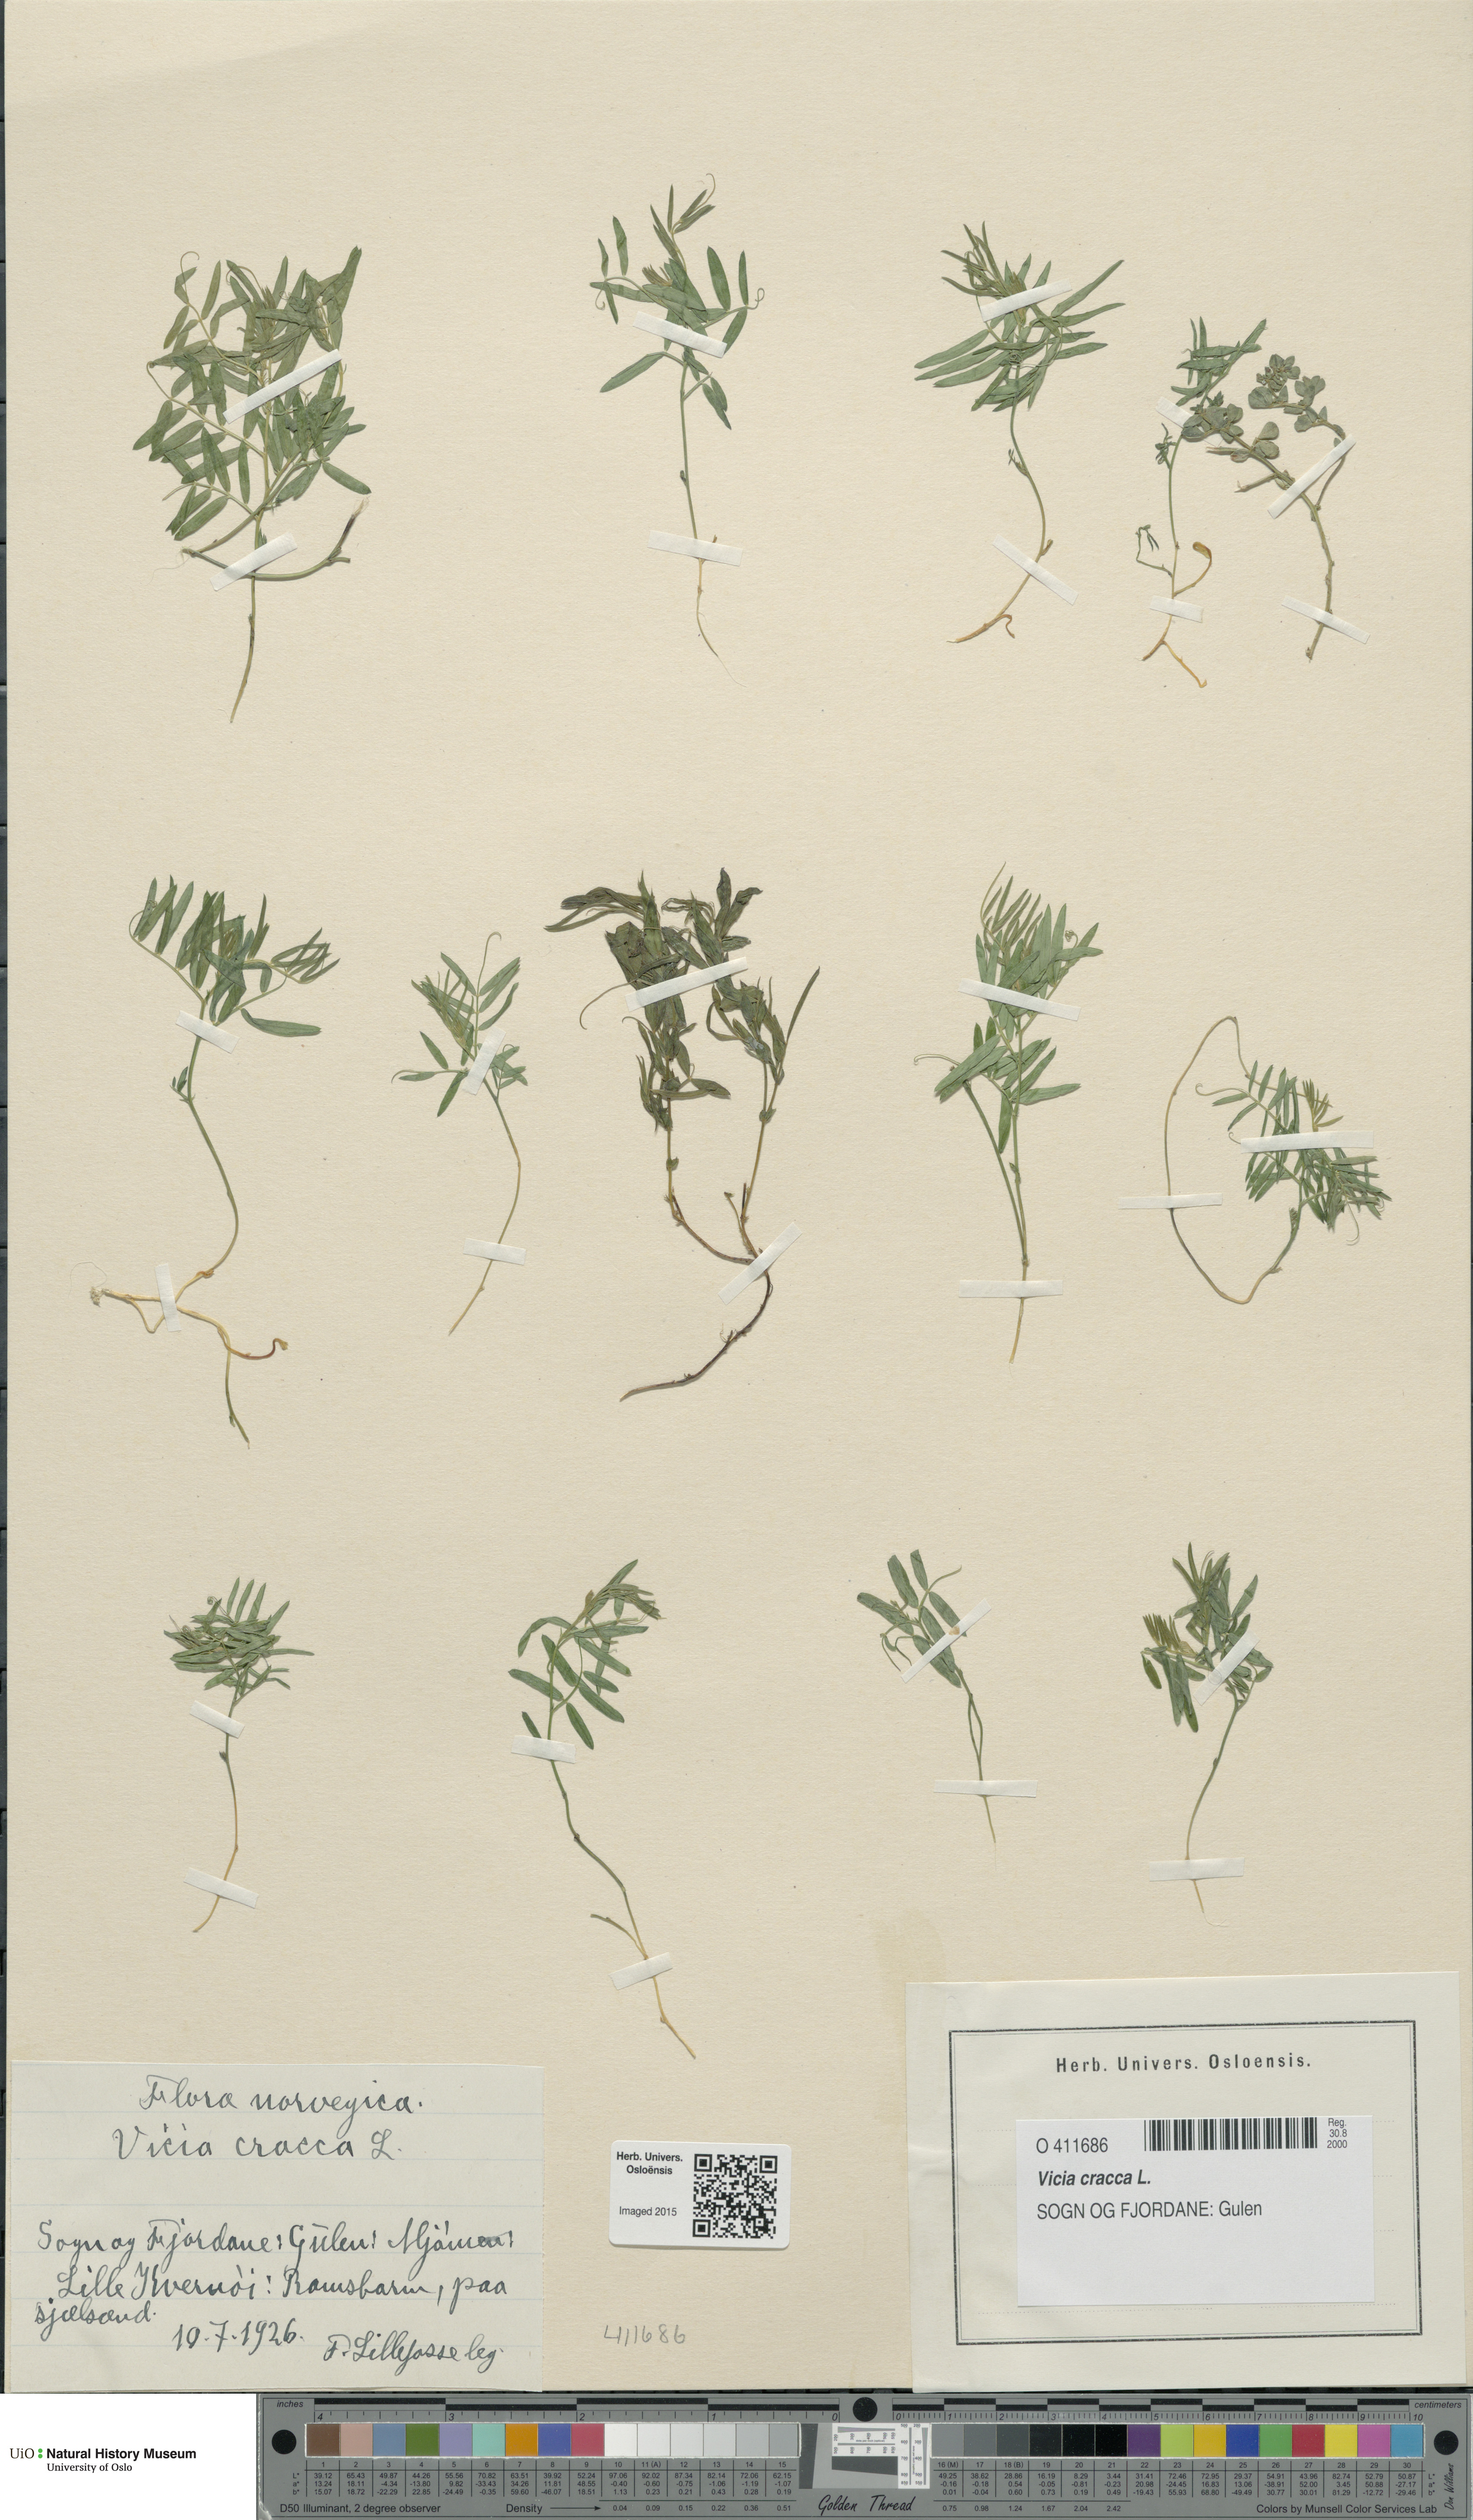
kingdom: Plantae
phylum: Tracheophyta
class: Magnoliopsida
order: Fabales
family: Fabaceae
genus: Vicia
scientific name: Vicia cracca
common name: Bird vetch
